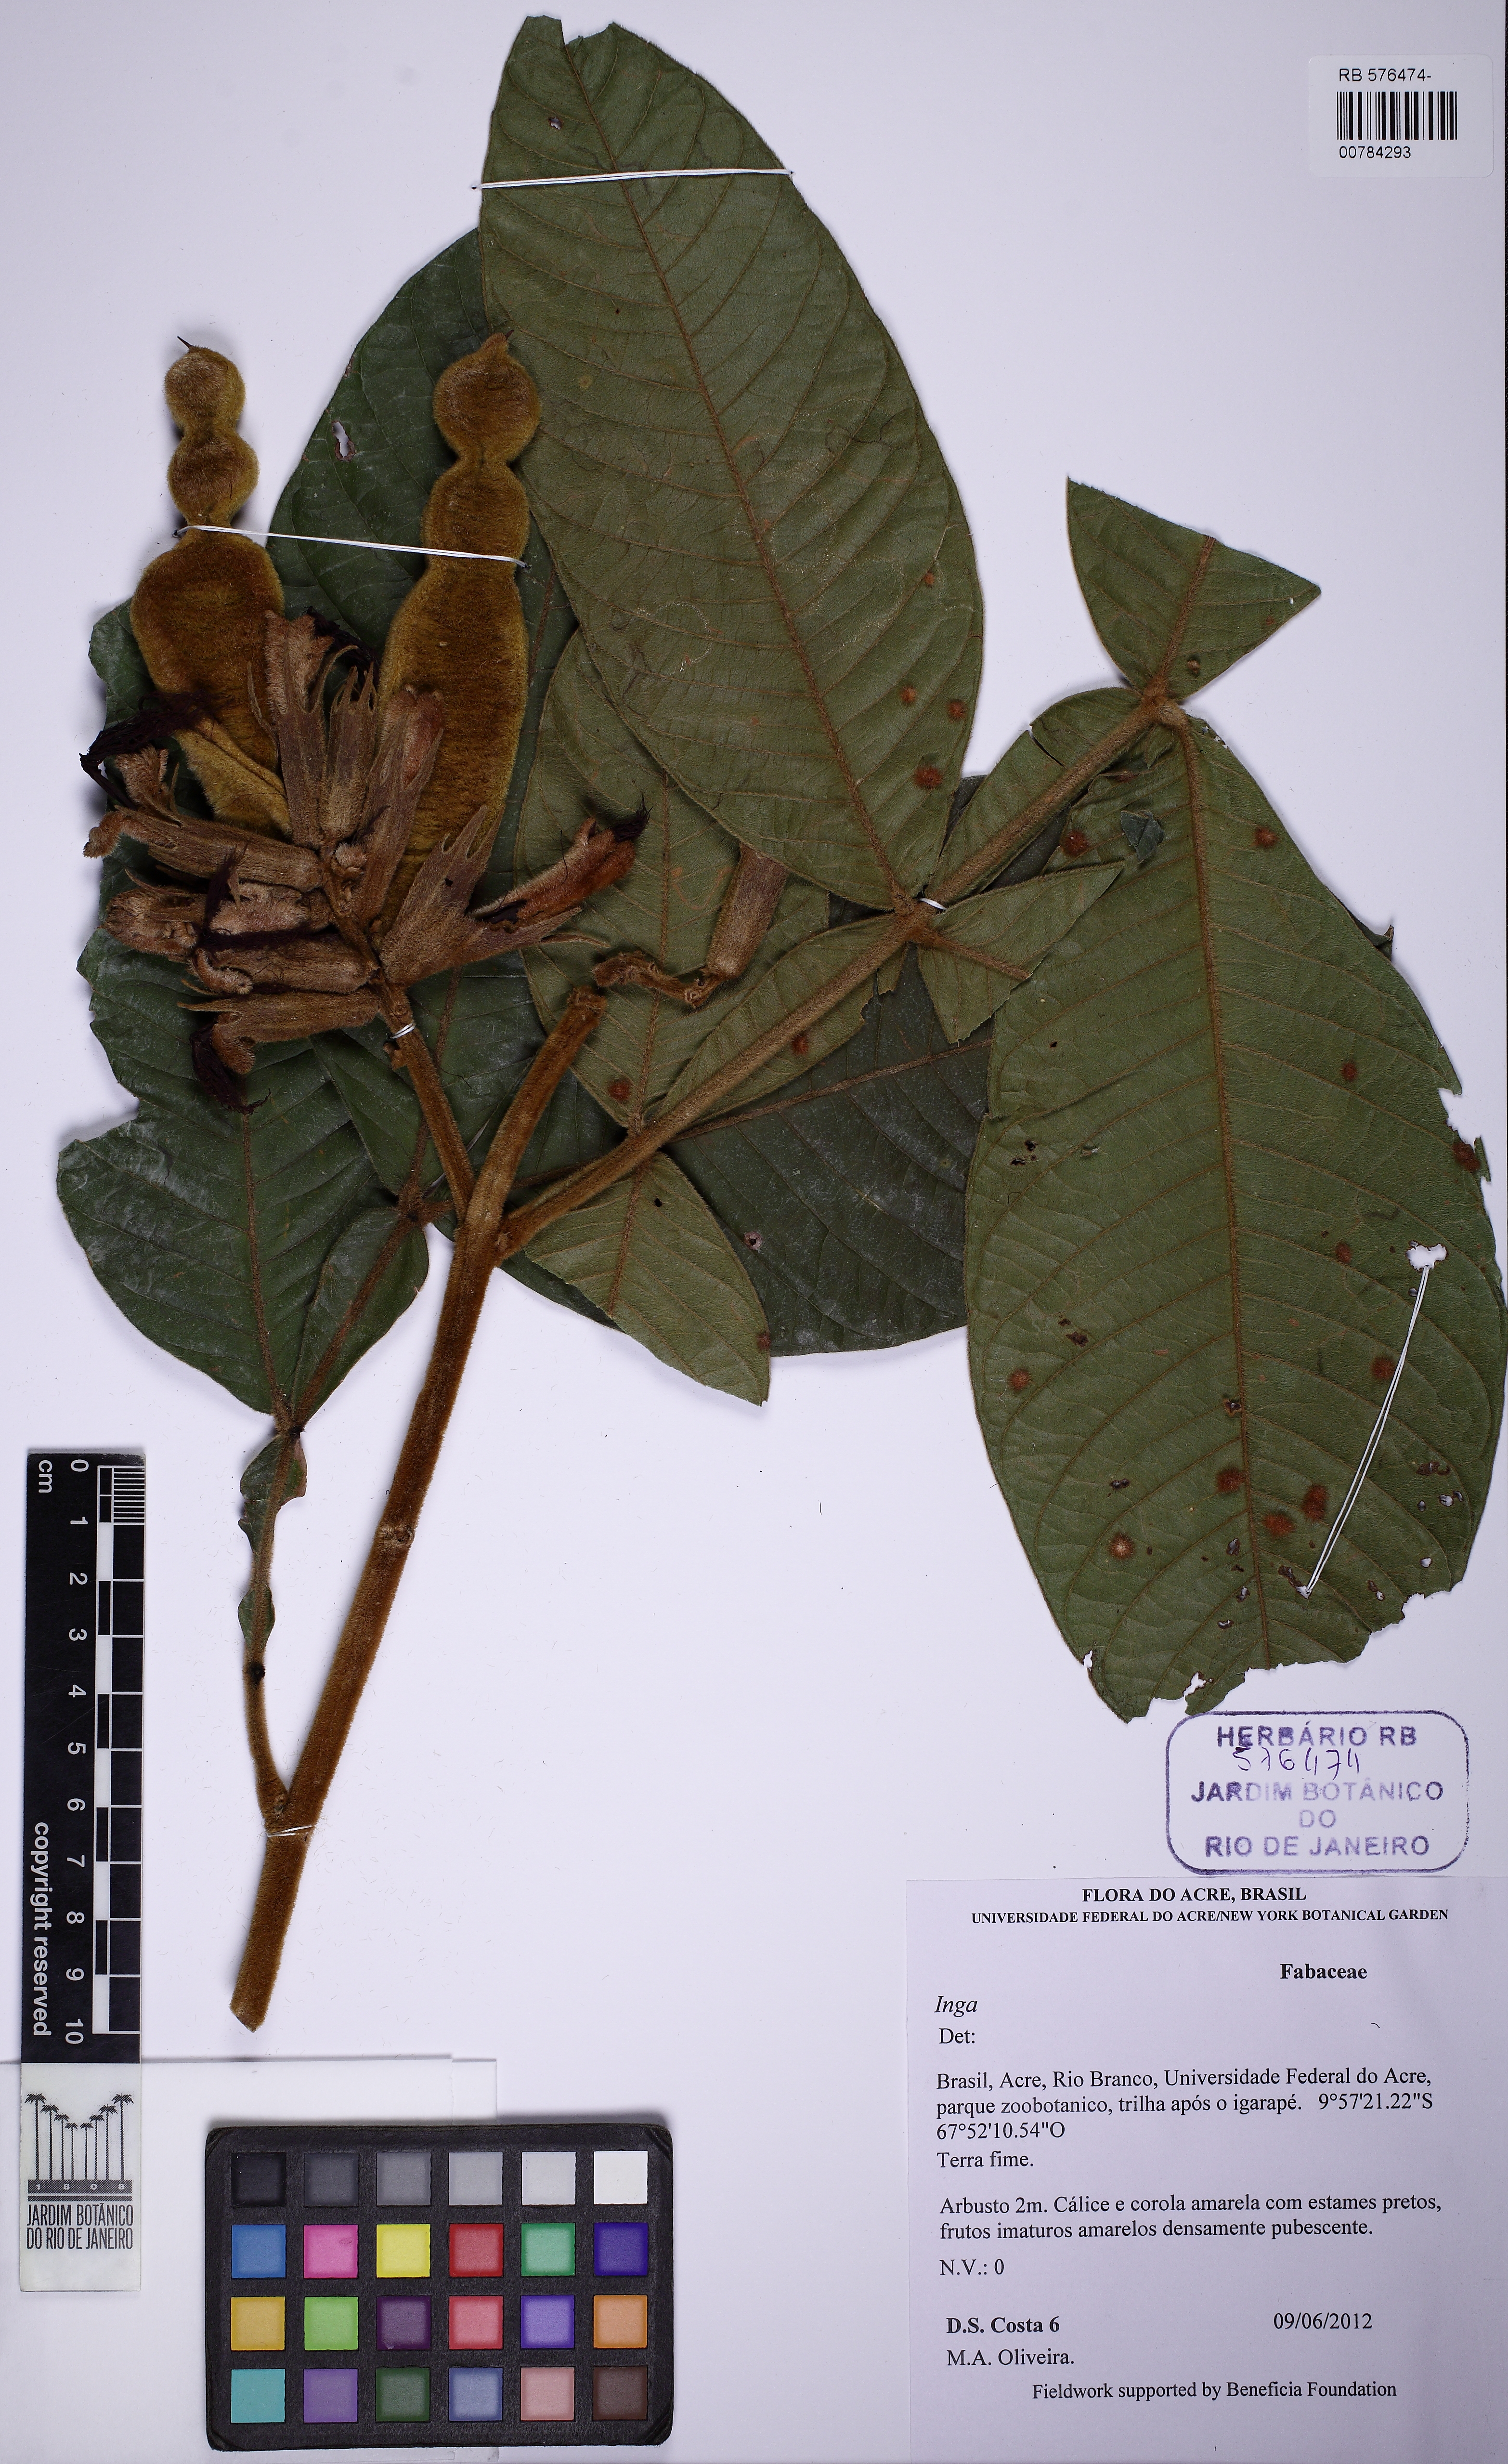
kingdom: Plantae
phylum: Tracheophyta
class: Magnoliopsida
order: Fabales
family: Fabaceae
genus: Inga
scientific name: Inga
